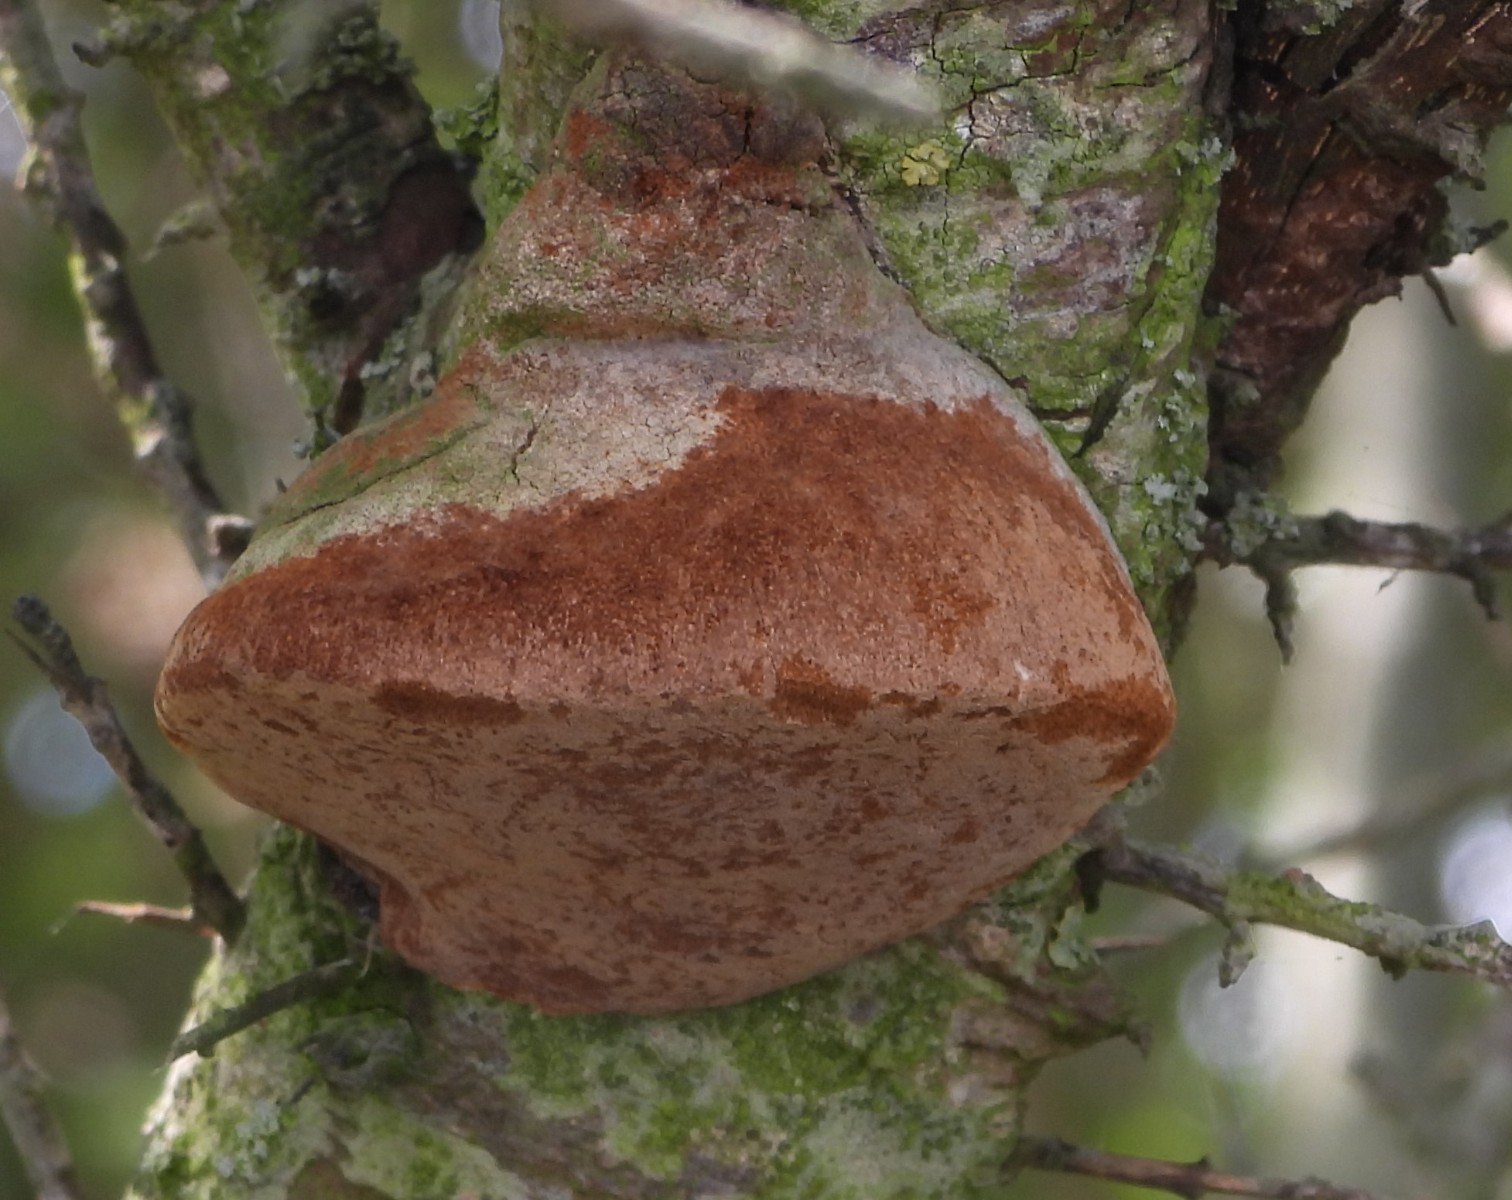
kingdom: Fungi
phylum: Basidiomycota
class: Agaricomycetes
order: Hymenochaetales
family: Hymenochaetaceae
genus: Fomitiporia
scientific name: Fomitiporia hippophaeicola
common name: havtorn-ildporesvamp
